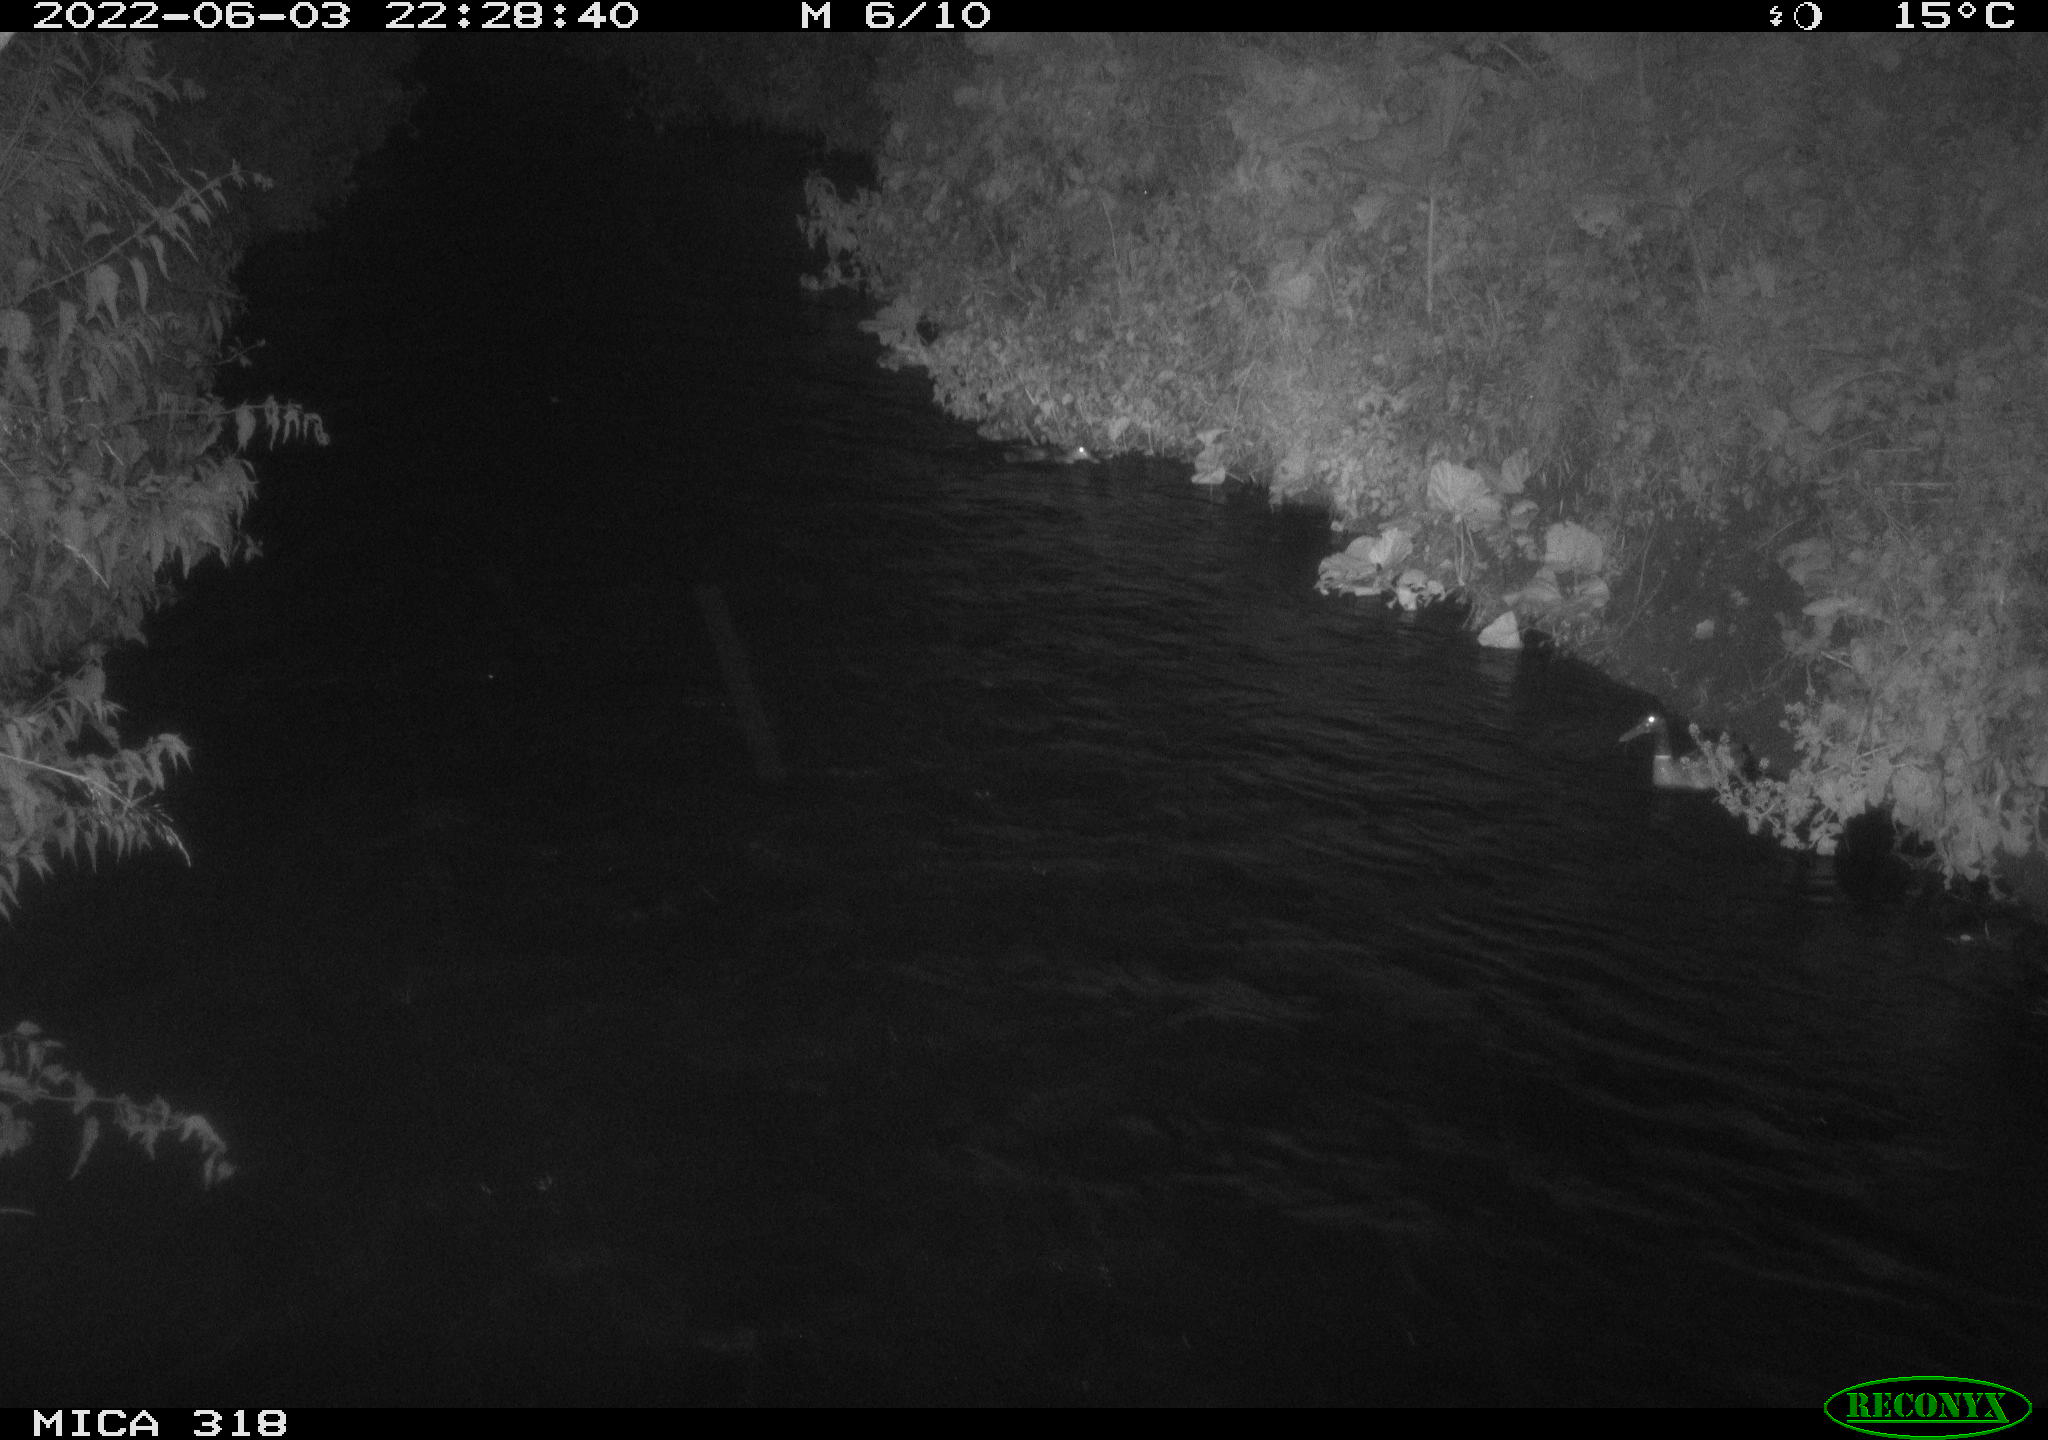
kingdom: Animalia
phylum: Chordata
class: Aves
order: Anseriformes
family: Anatidae
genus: Anas
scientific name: Anas
